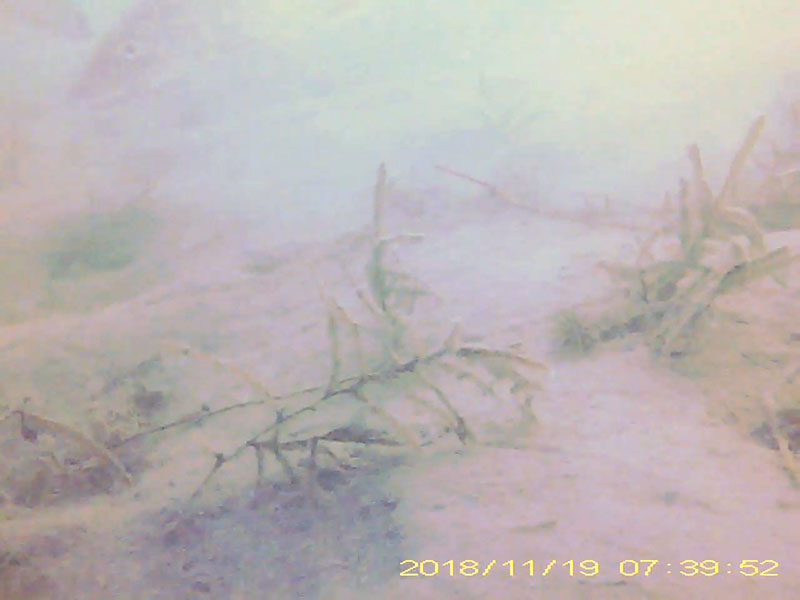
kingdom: Animalia
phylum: Chordata
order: Cypriniformes
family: Cyprinidae
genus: Hemibarbus
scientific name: Hemibarbus labeo
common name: ニゴイ
